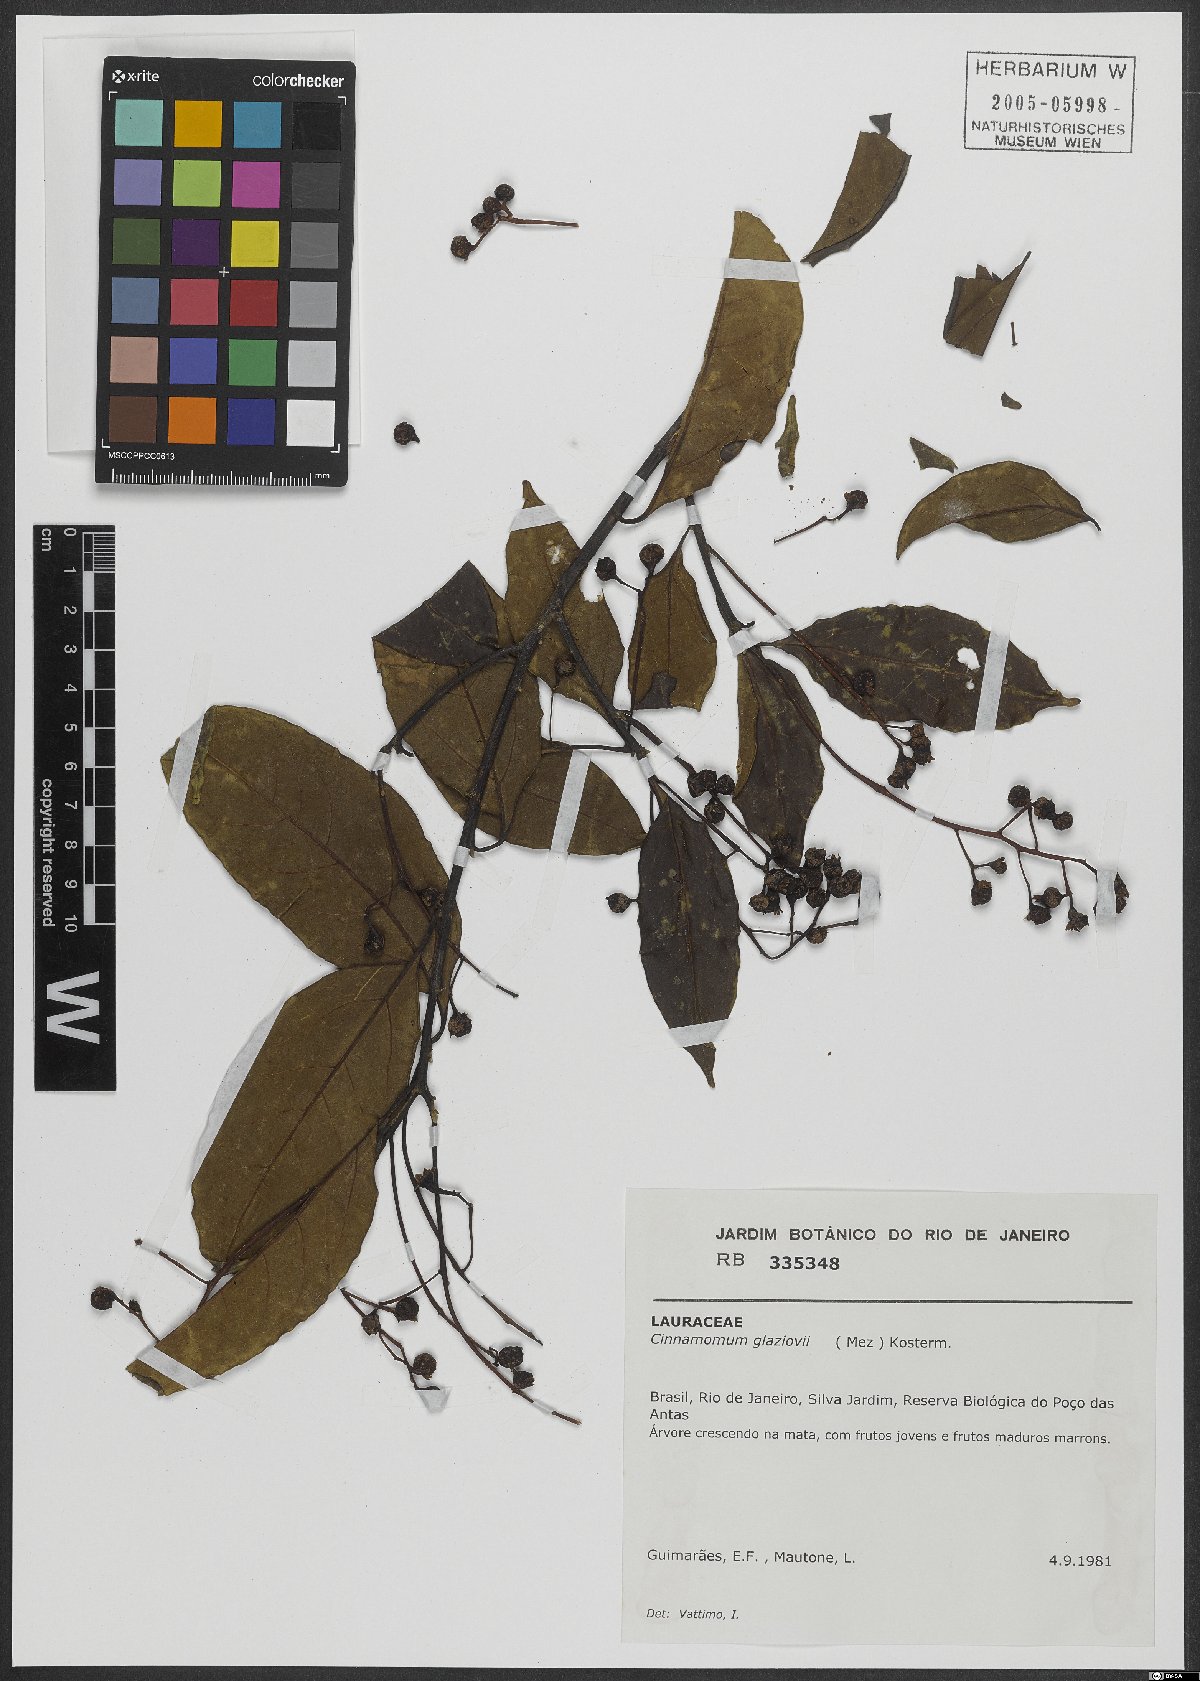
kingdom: Plantae
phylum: Tracheophyta
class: Magnoliopsida
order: Laurales
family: Lauraceae
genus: Aiouea
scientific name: Aiouea glaziovii
